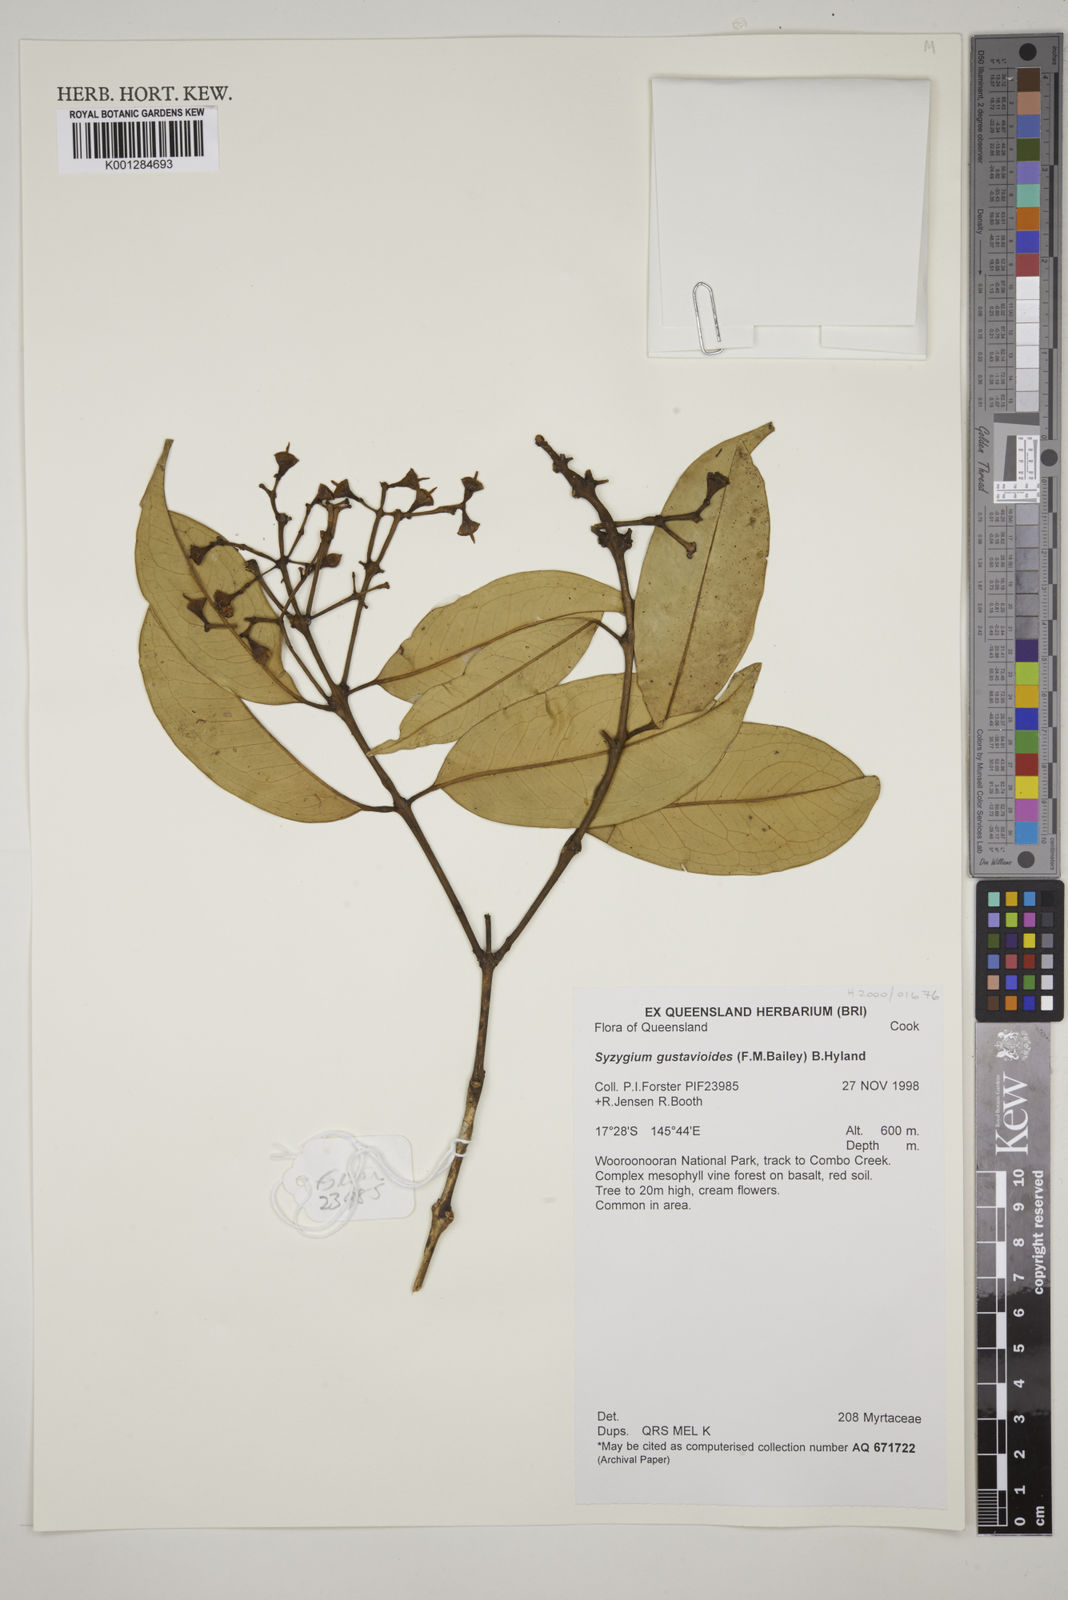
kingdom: Plantae
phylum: Tracheophyta
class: Magnoliopsida
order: Myrtales
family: Myrtaceae
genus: Syzygium
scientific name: Syzygium gustavioides
